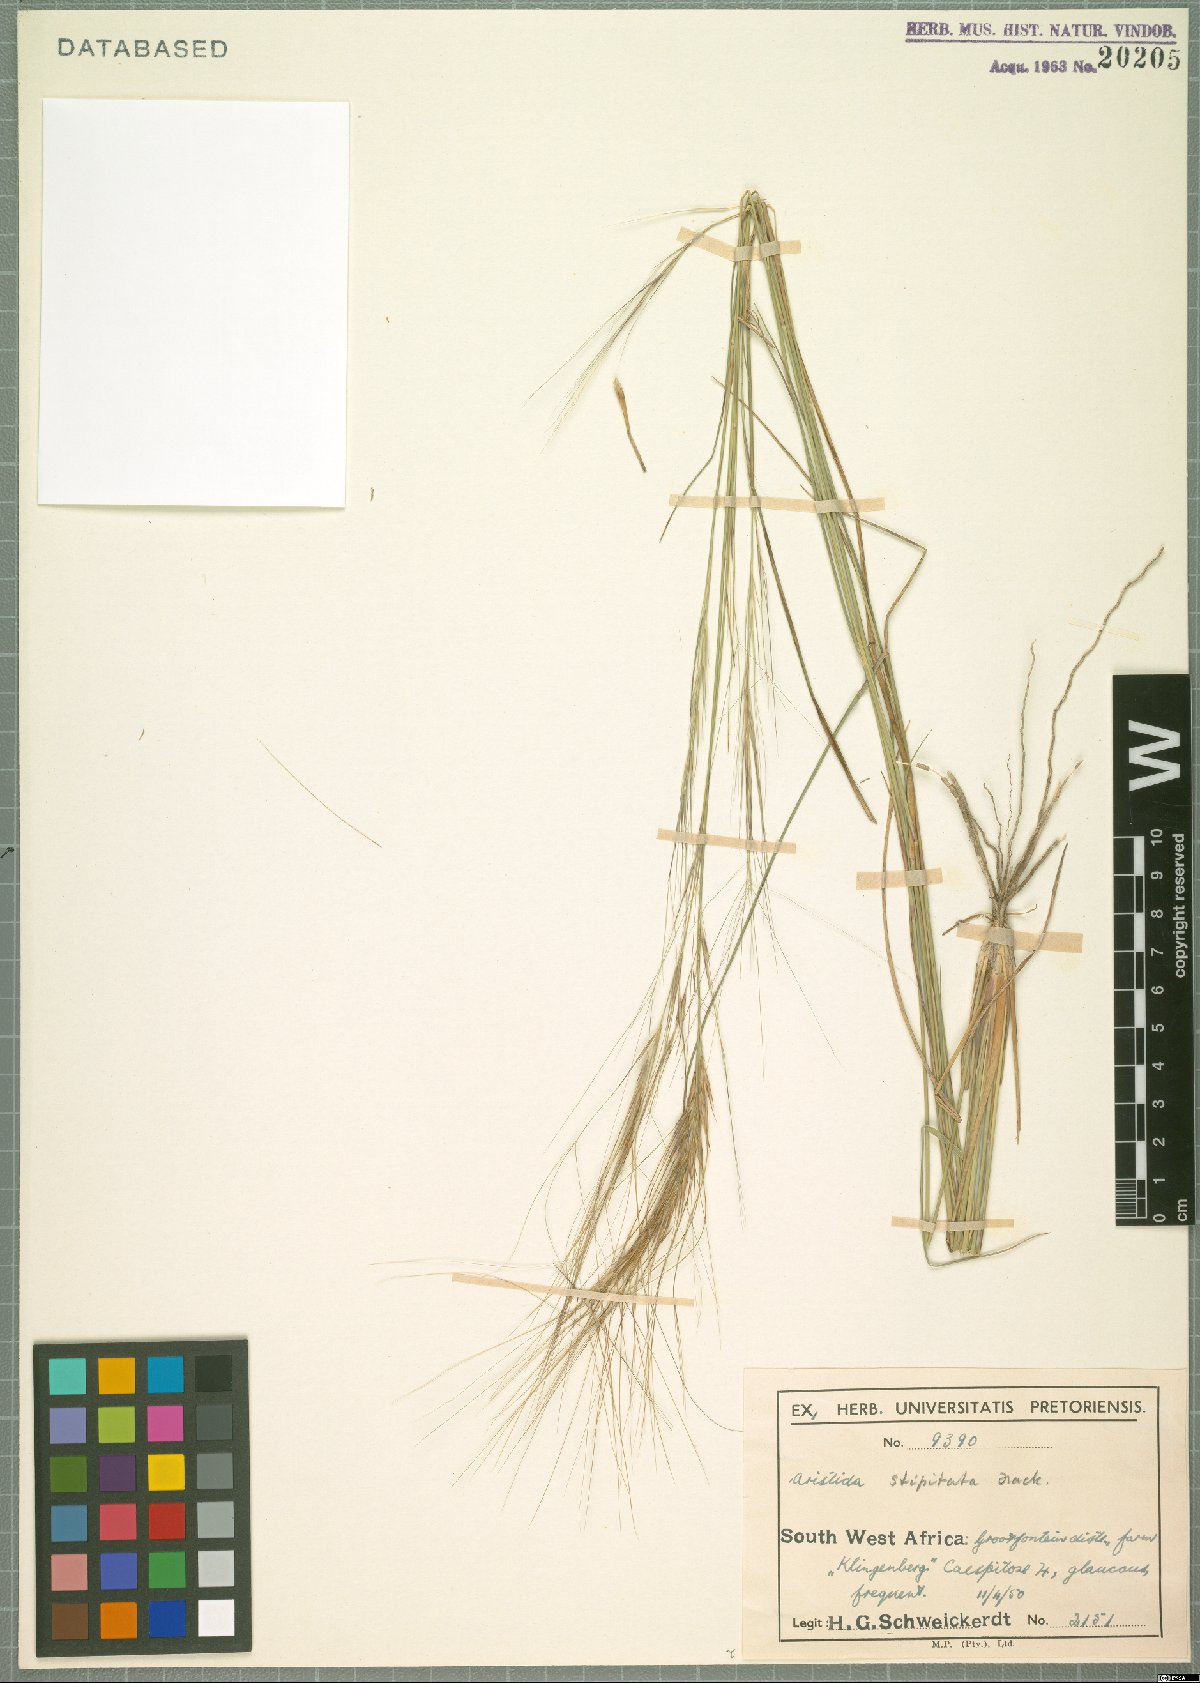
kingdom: Plantae
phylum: Tracheophyta
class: Liliopsida
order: Poales
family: Poaceae
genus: Aristida
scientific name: Aristida stipitata
